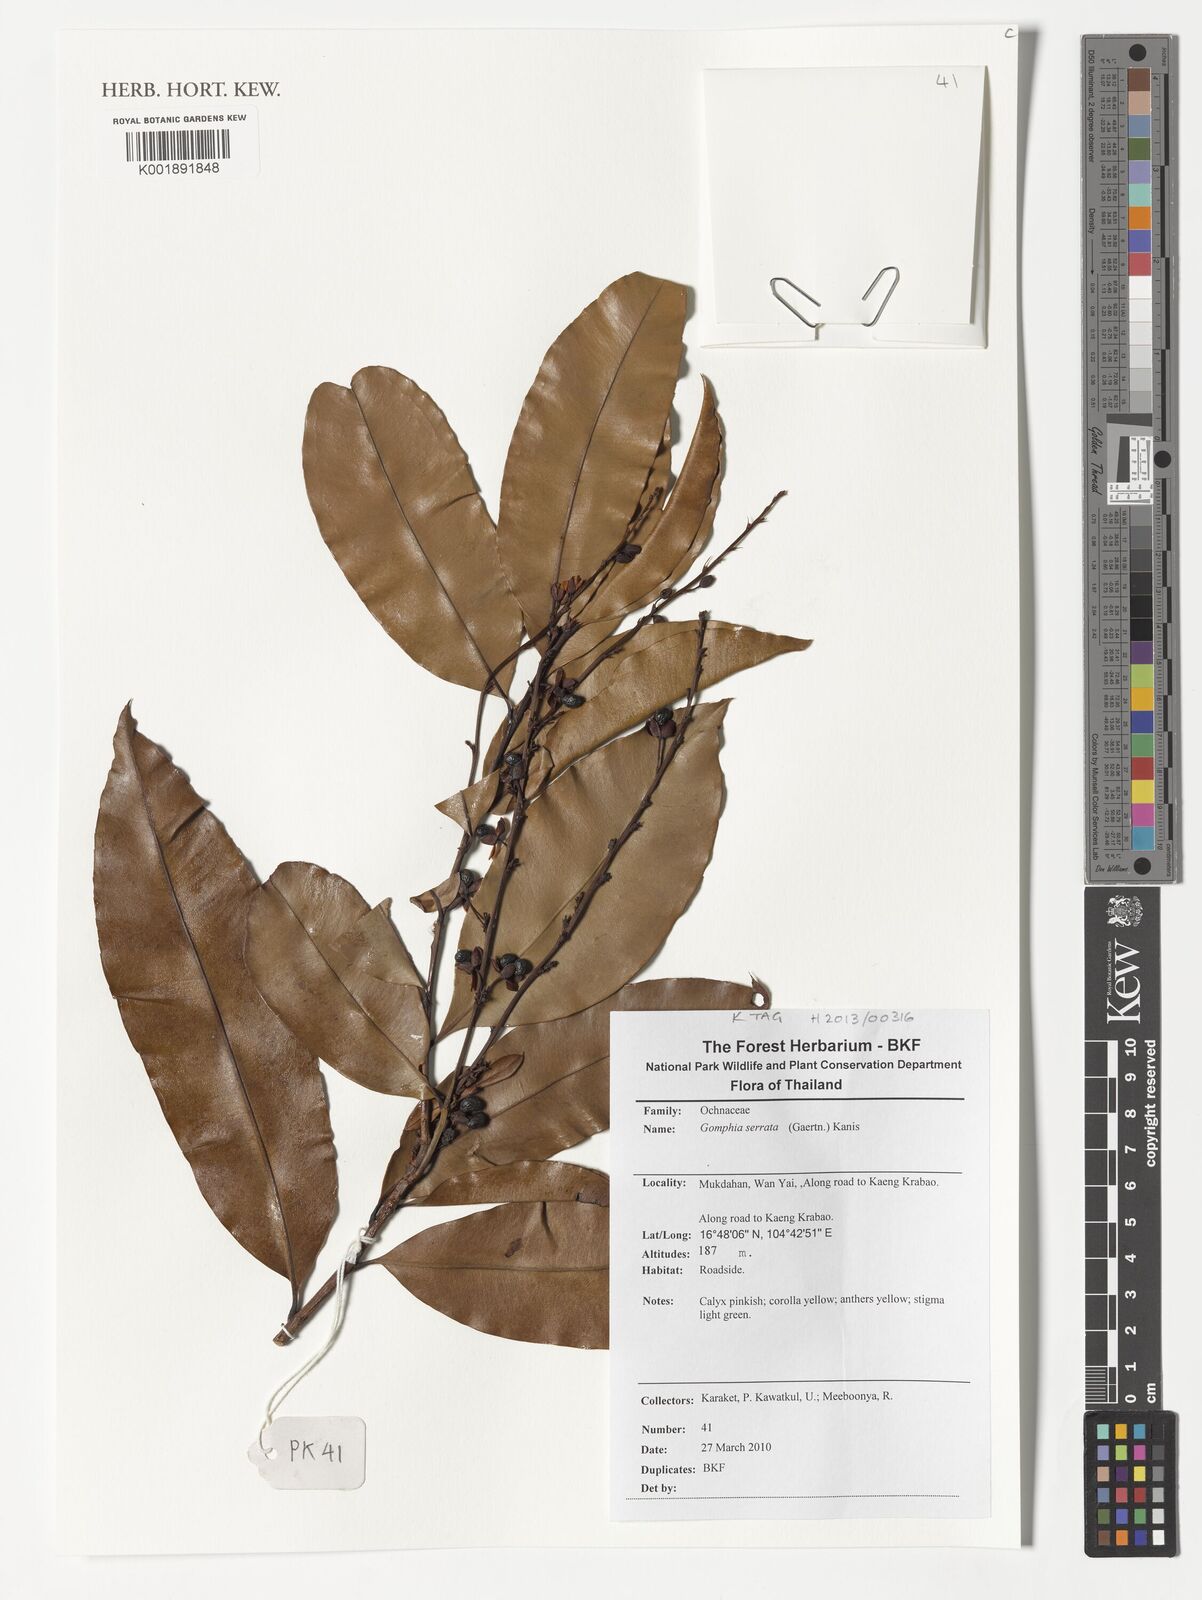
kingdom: Plantae
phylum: Tracheophyta
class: Magnoliopsida
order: Malpighiales
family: Ochnaceae
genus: Gomphia
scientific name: Gomphia serrata
